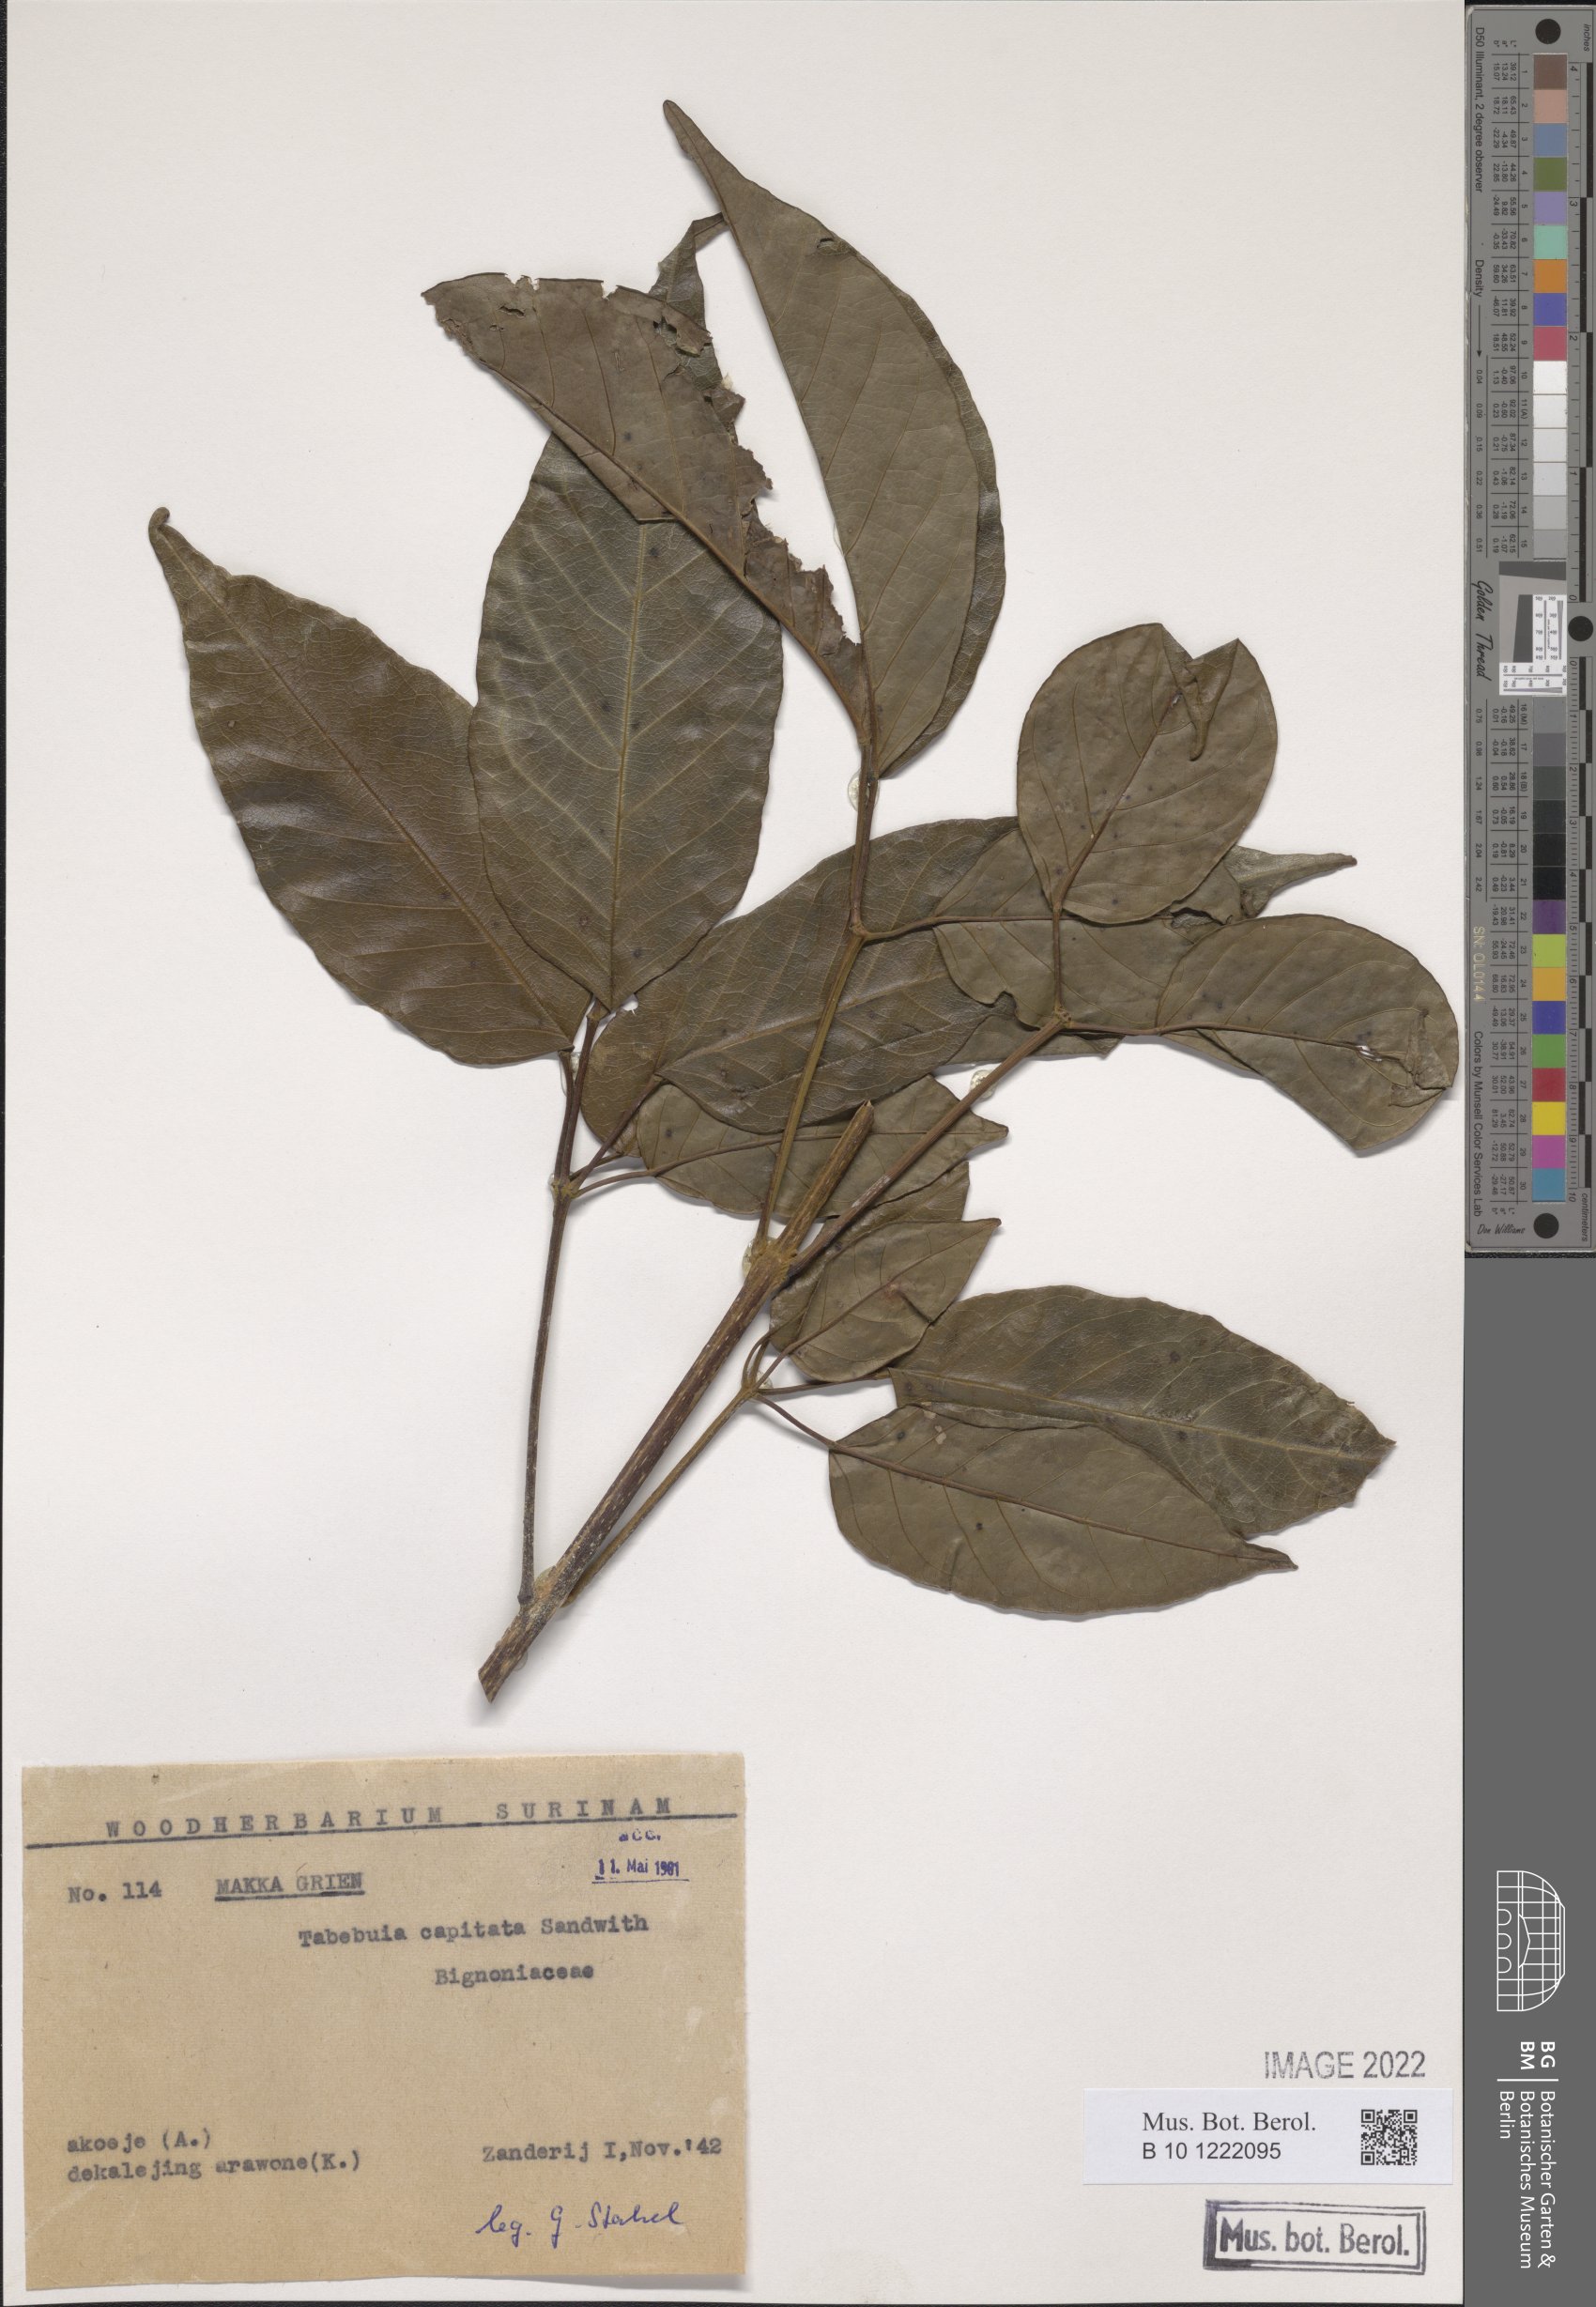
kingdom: Plantae
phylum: Tracheophyta
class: Magnoliopsida
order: Lamiales
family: Bignoniaceae
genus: Handroanthus
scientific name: Handroanthus capitatus
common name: Trumpet trees
